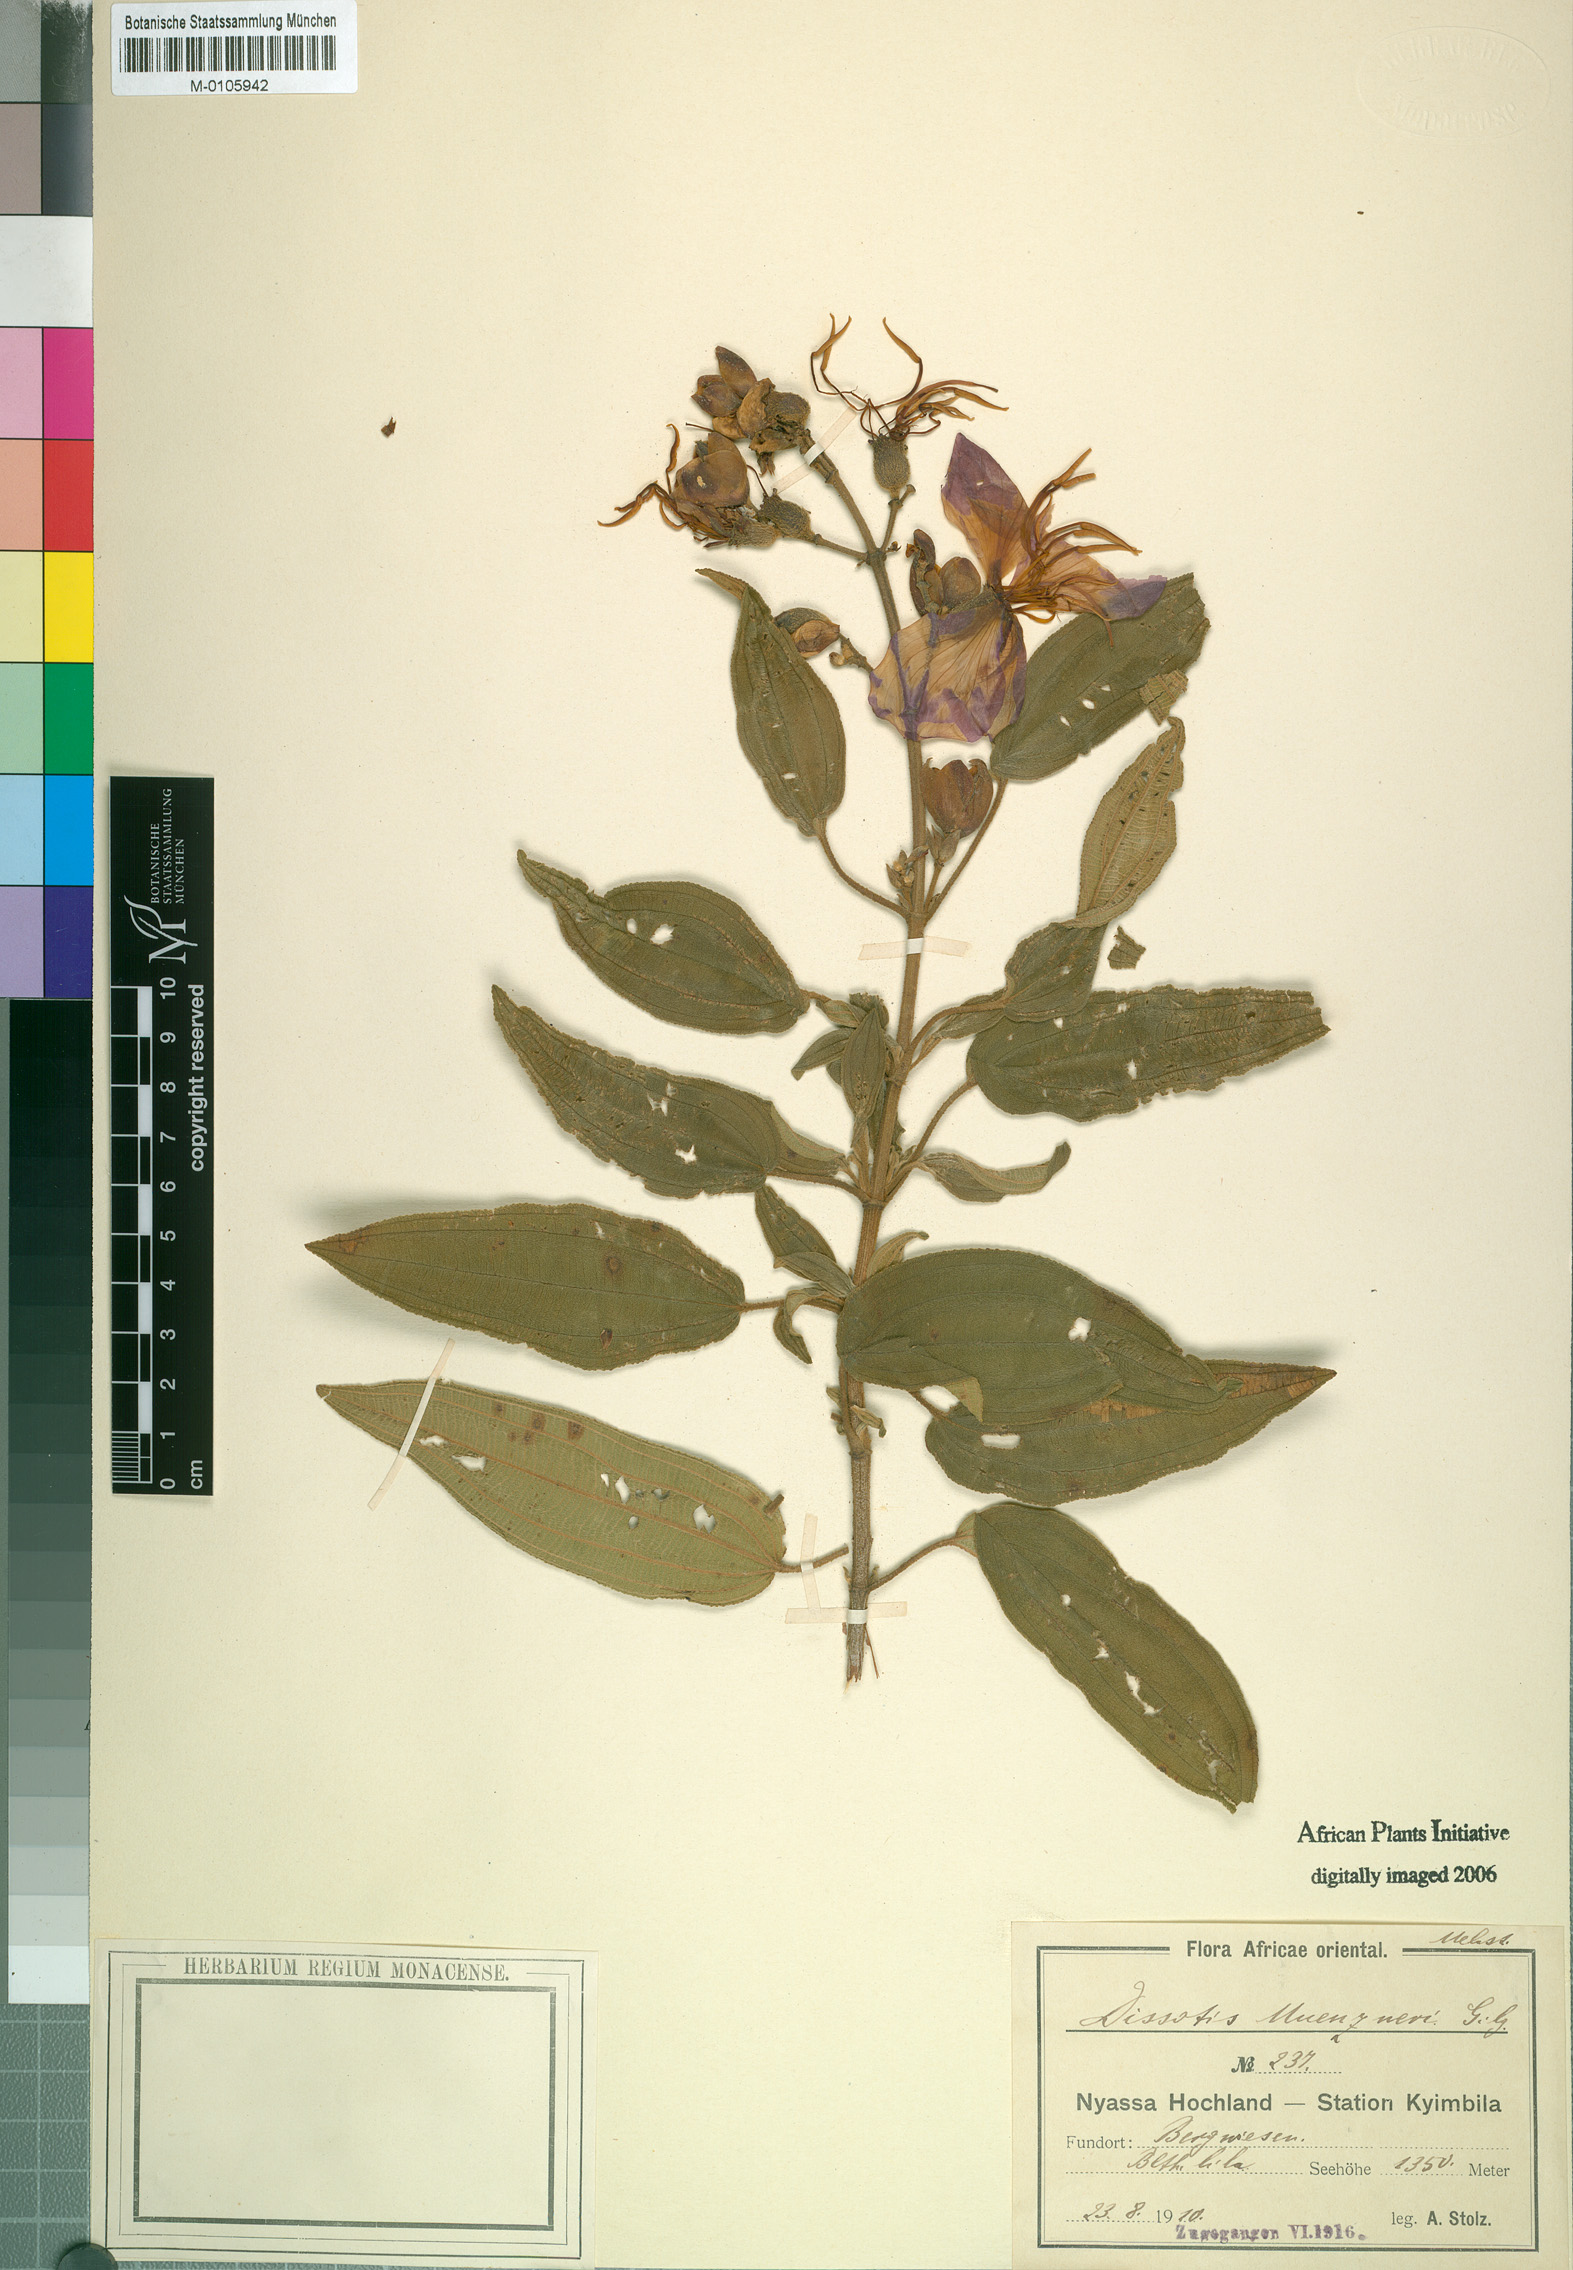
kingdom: Plantae
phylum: Tracheophyta
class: Magnoliopsida
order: Myrtales
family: Melastomataceae
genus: Rosettea
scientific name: Rosettea princeps
